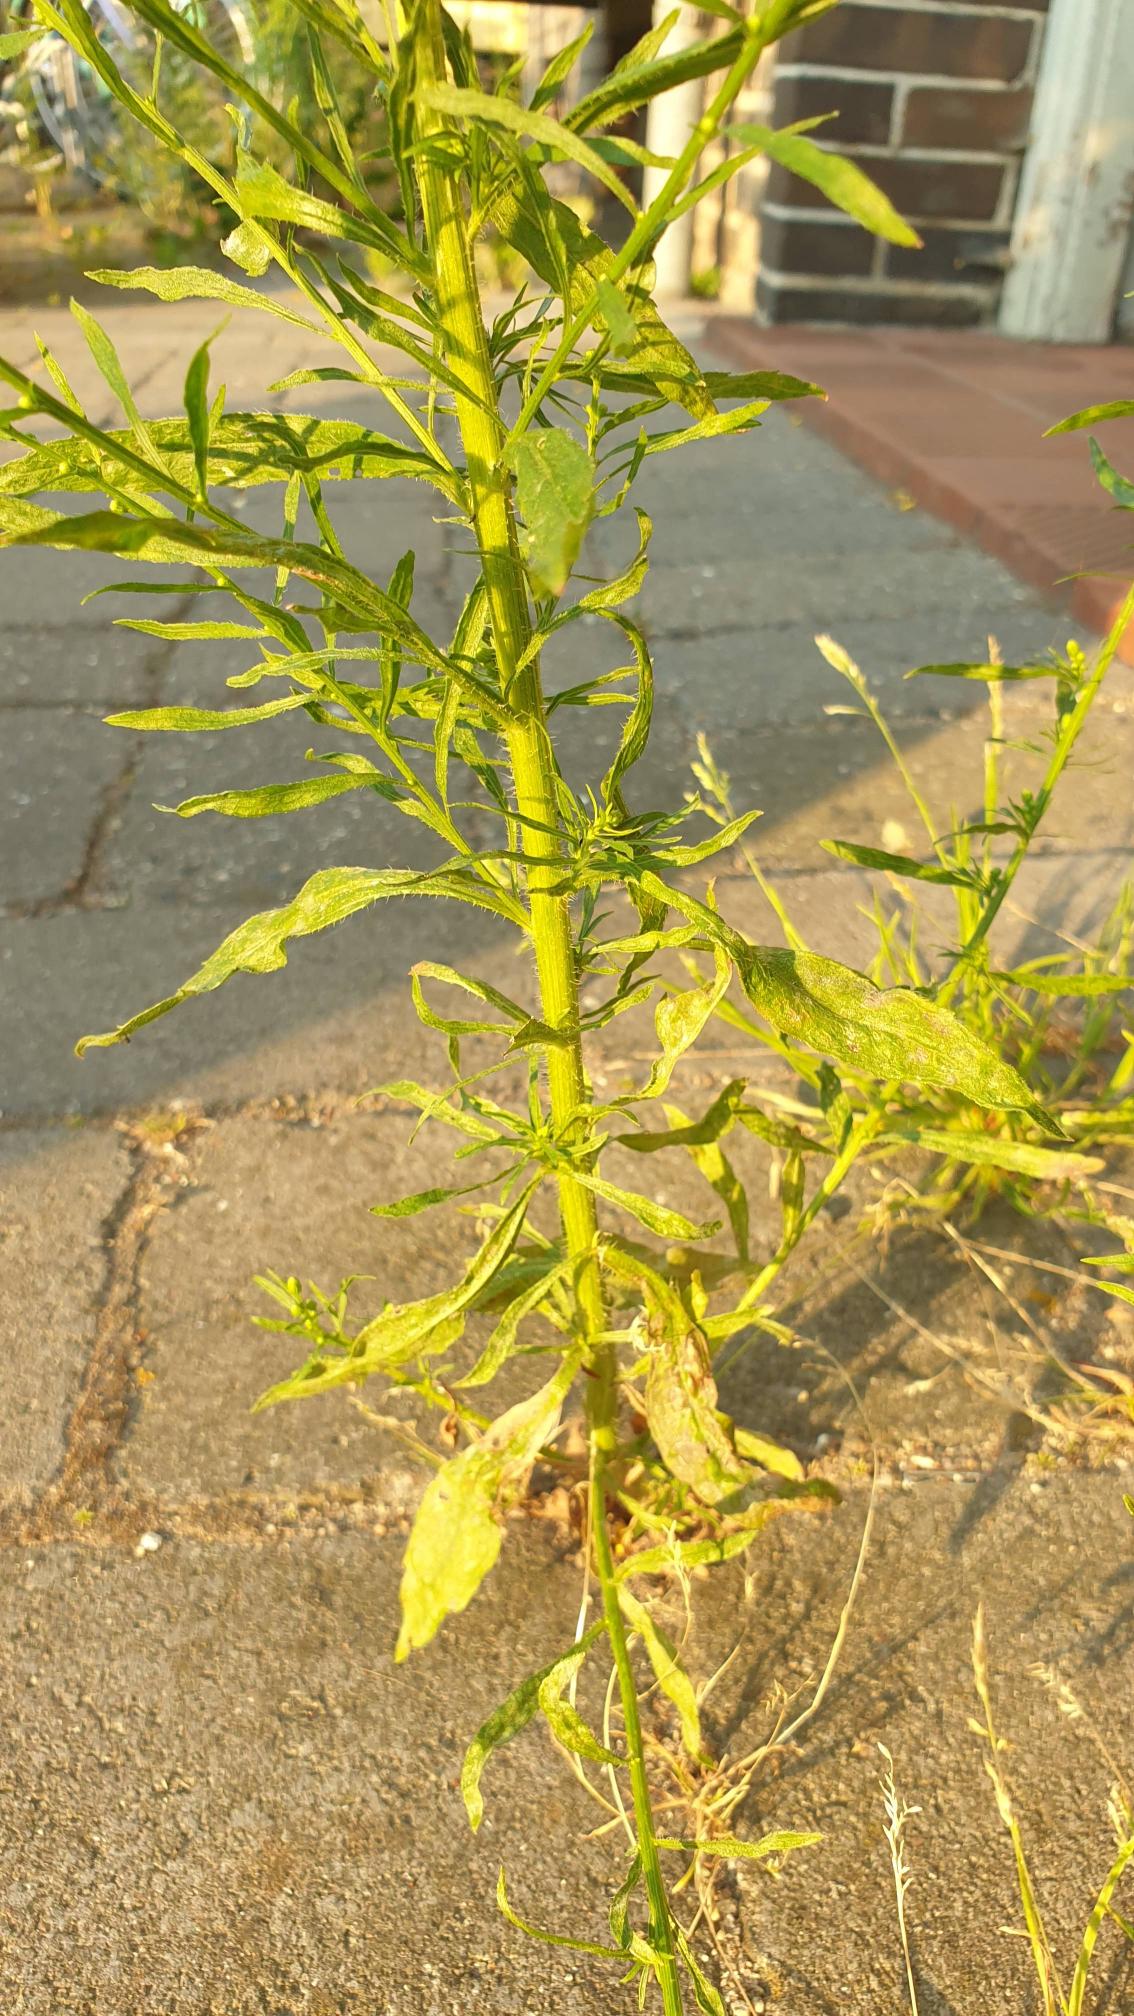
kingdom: Plantae
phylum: Tracheophyta
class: Magnoliopsida
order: Asterales
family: Asteraceae
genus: Erigeron
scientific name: Erigeron canadensis
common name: Kanadisk bakkestjerne
